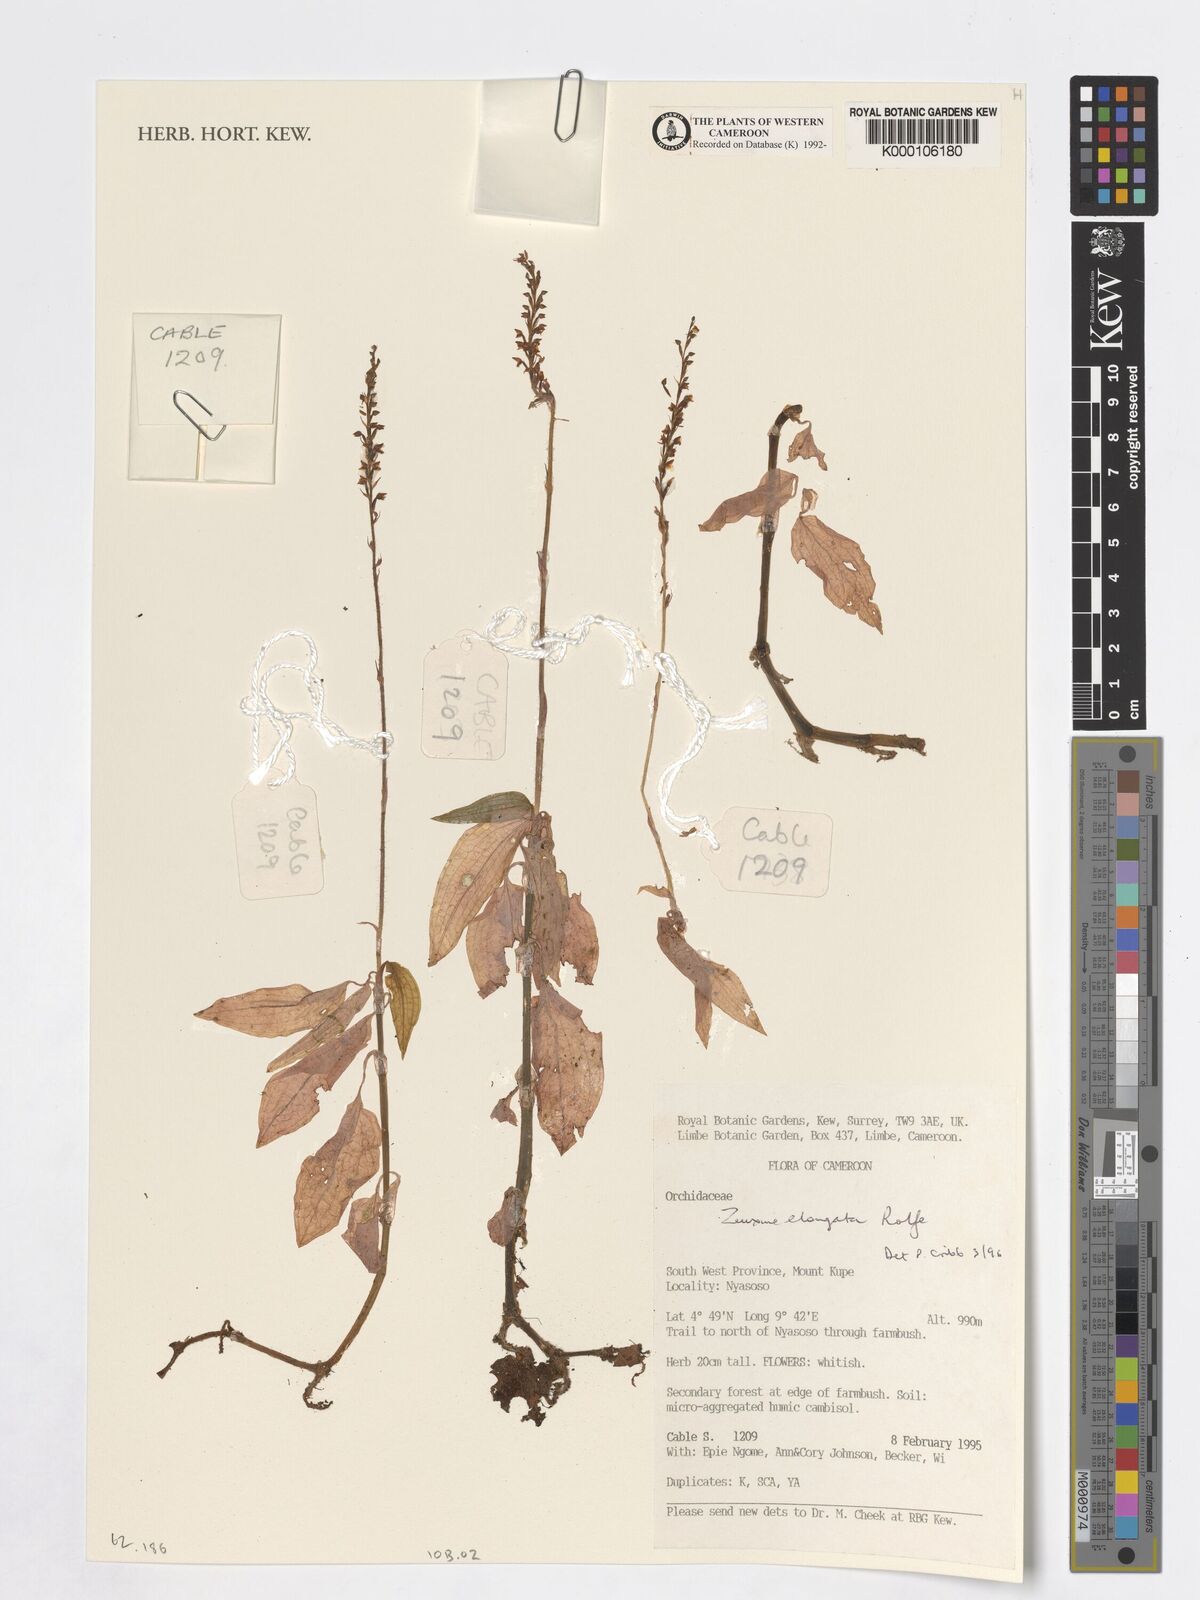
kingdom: Plantae
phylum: Tracheophyta
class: Liliopsida
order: Asparagales
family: Orchidaceae
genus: Zeuxine
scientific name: Zeuxine elongata
